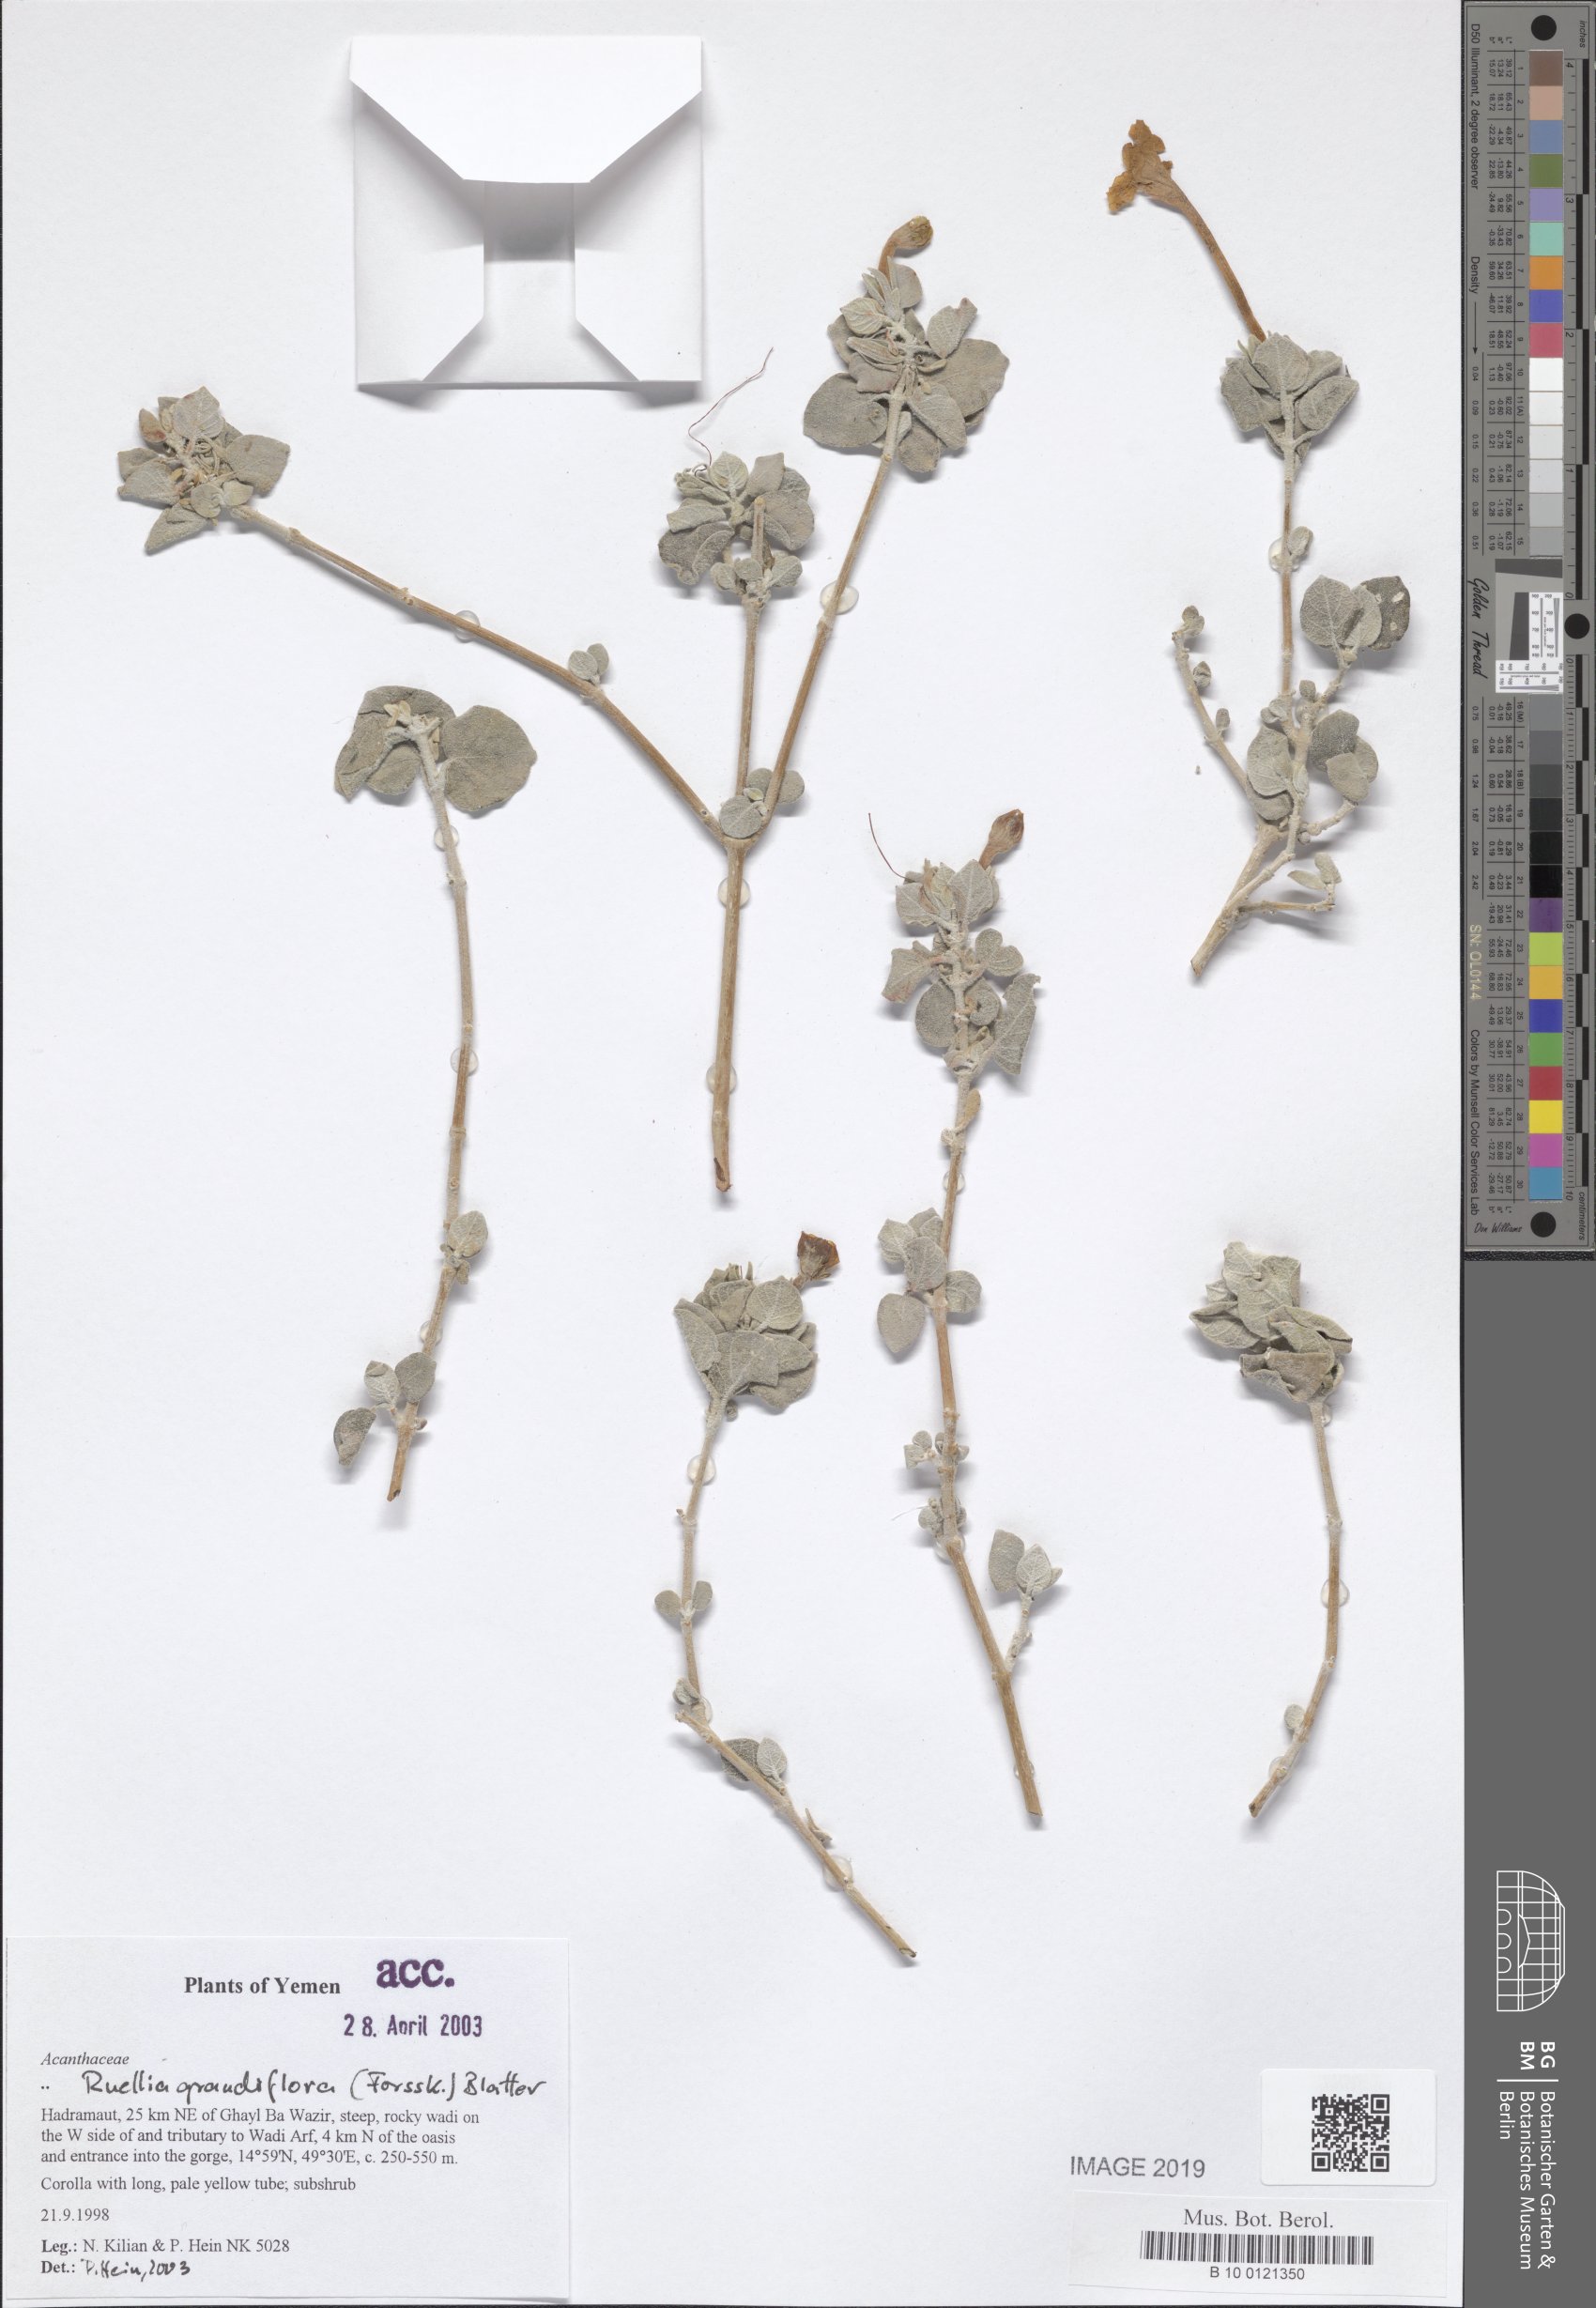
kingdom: Plantae
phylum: Tracheophyta
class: Magnoliopsida
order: Lamiales
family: Acanthaceae
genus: Ruellia
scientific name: Ruellia grandiflora
